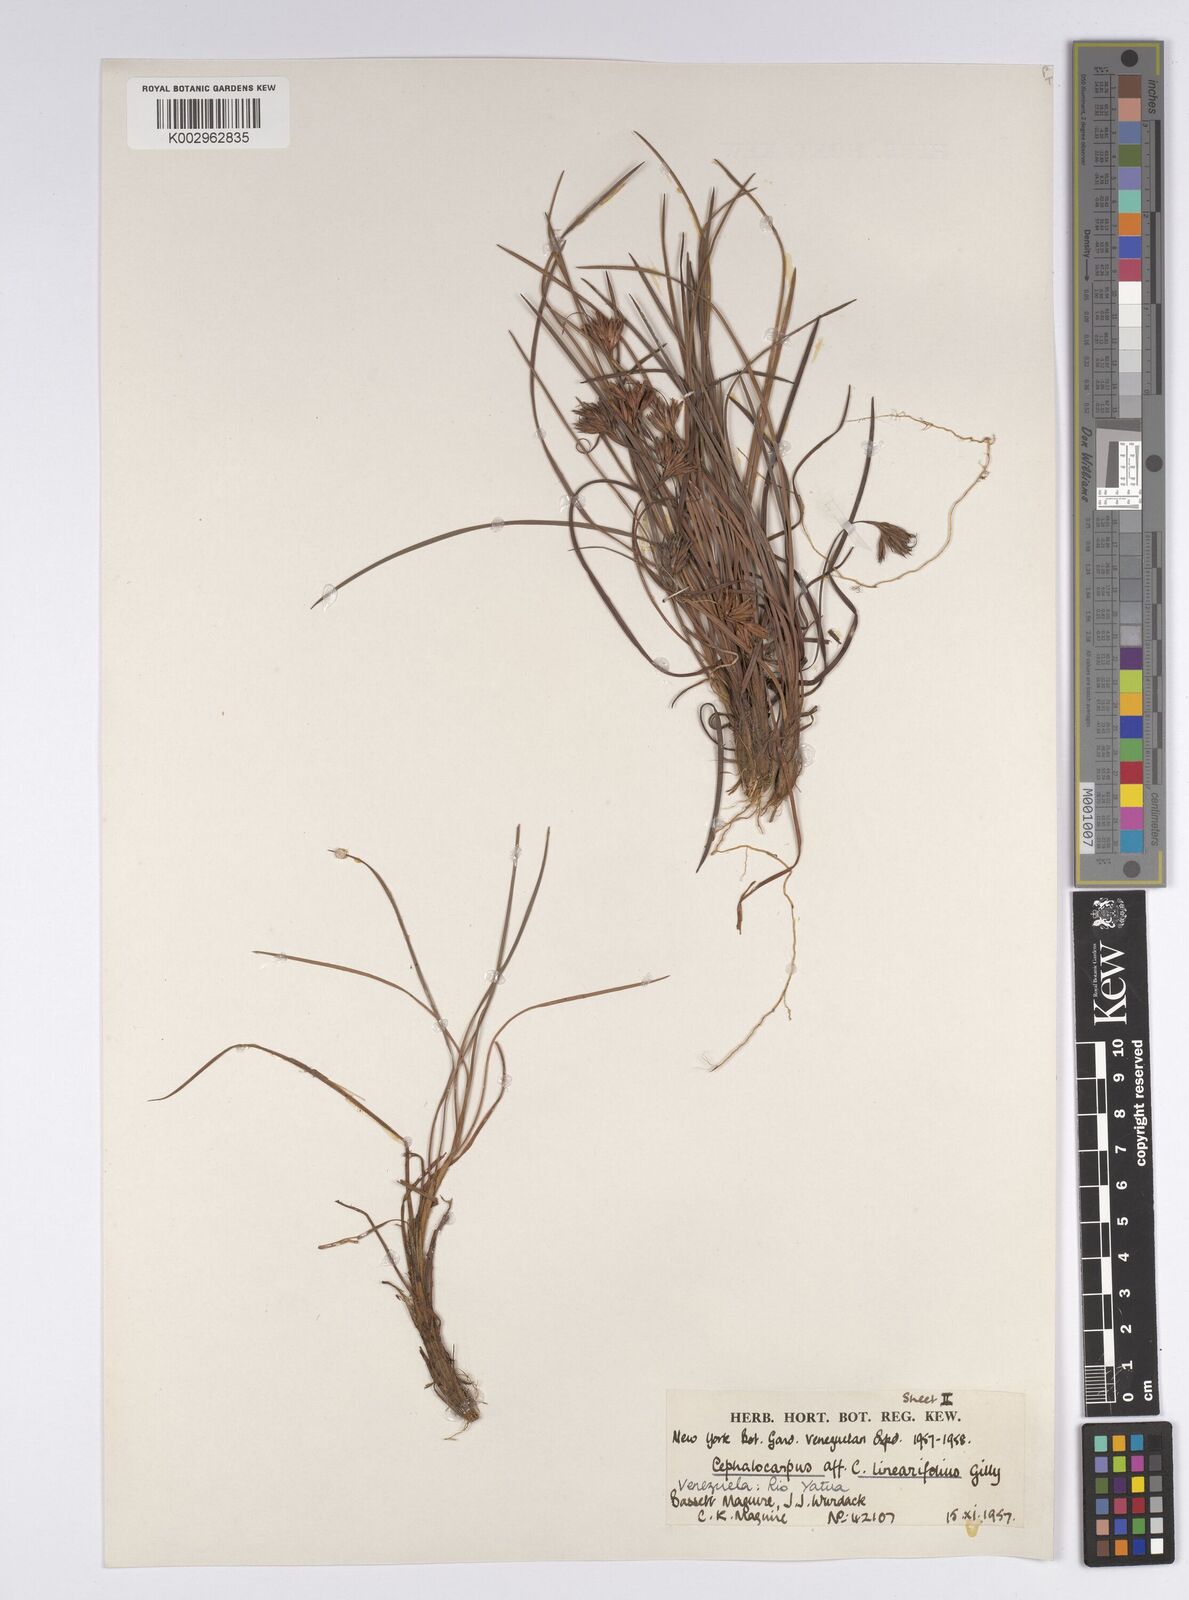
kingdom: Plantae
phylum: Tracheophyta
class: Liliopsida
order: Poales
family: Cyperaceae
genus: Cephalocarpus
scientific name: Cephalocarpus rigidus
